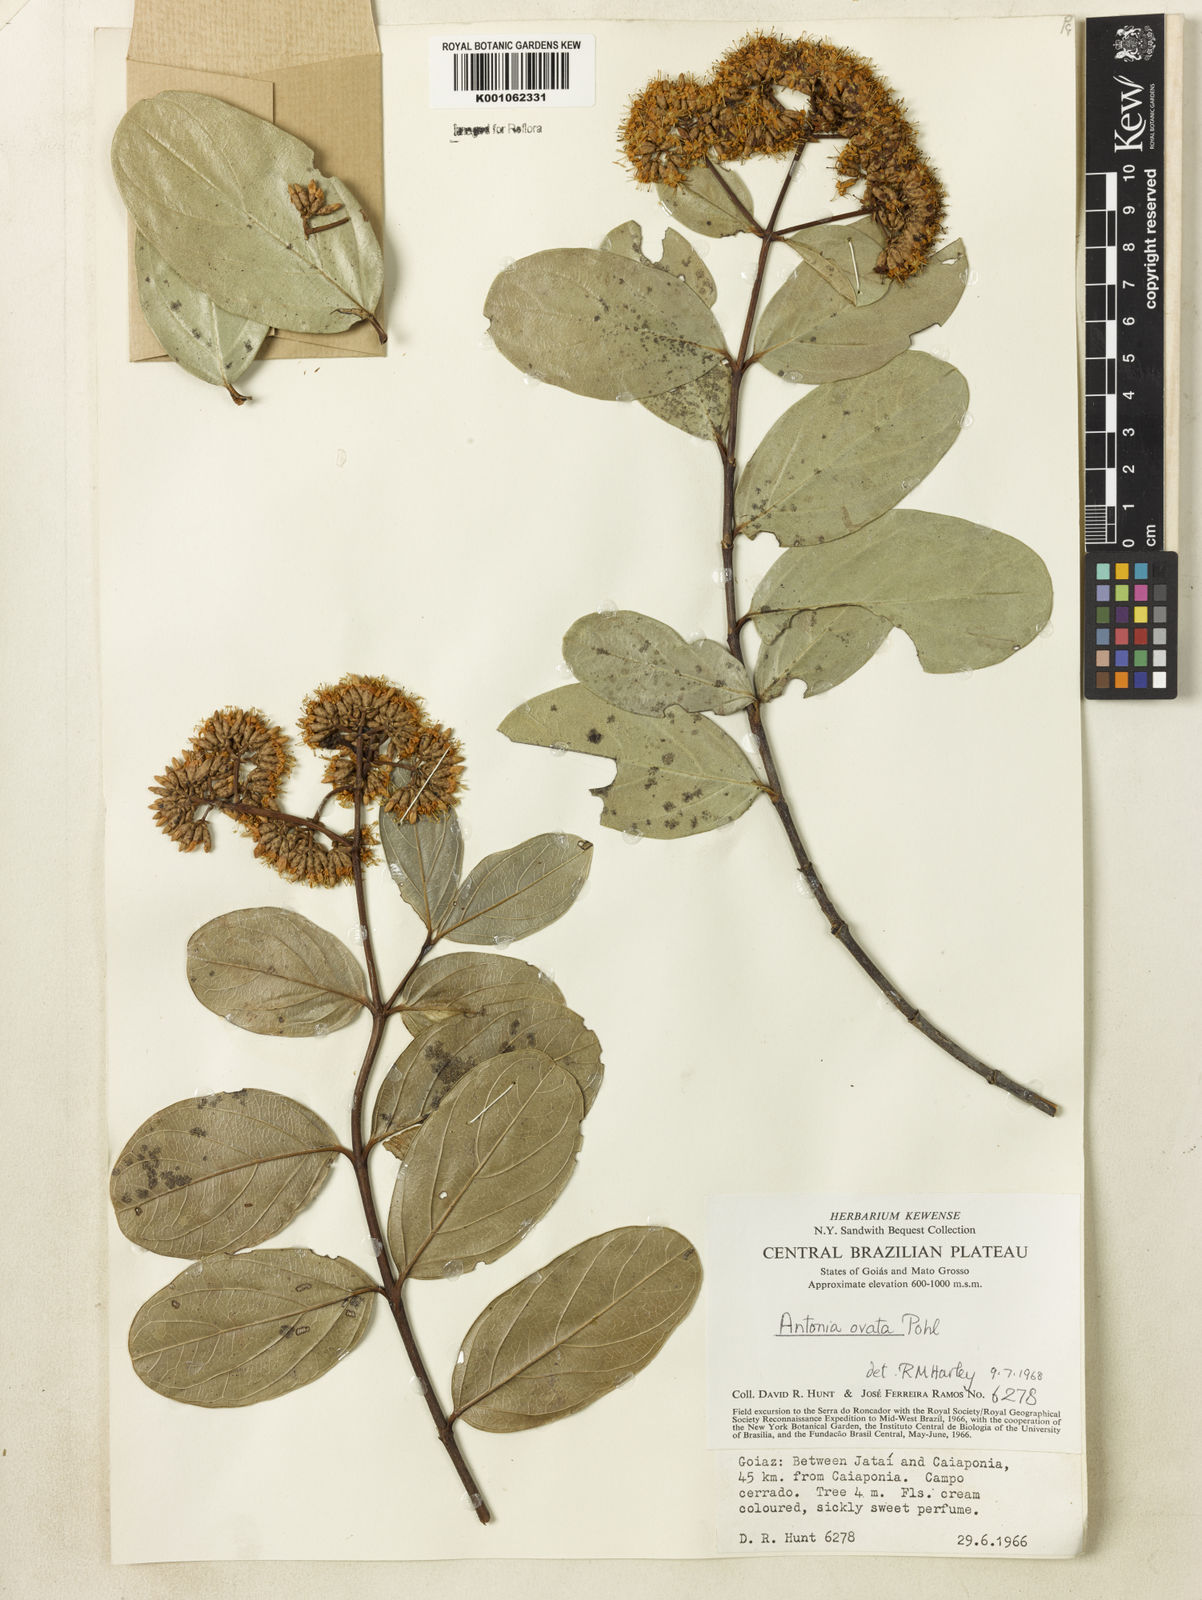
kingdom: Plantae
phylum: Tracheophyta
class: Magnoliopsida
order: Gentianales
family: Loganiaceae
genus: Antonia
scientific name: Antonia ovata
